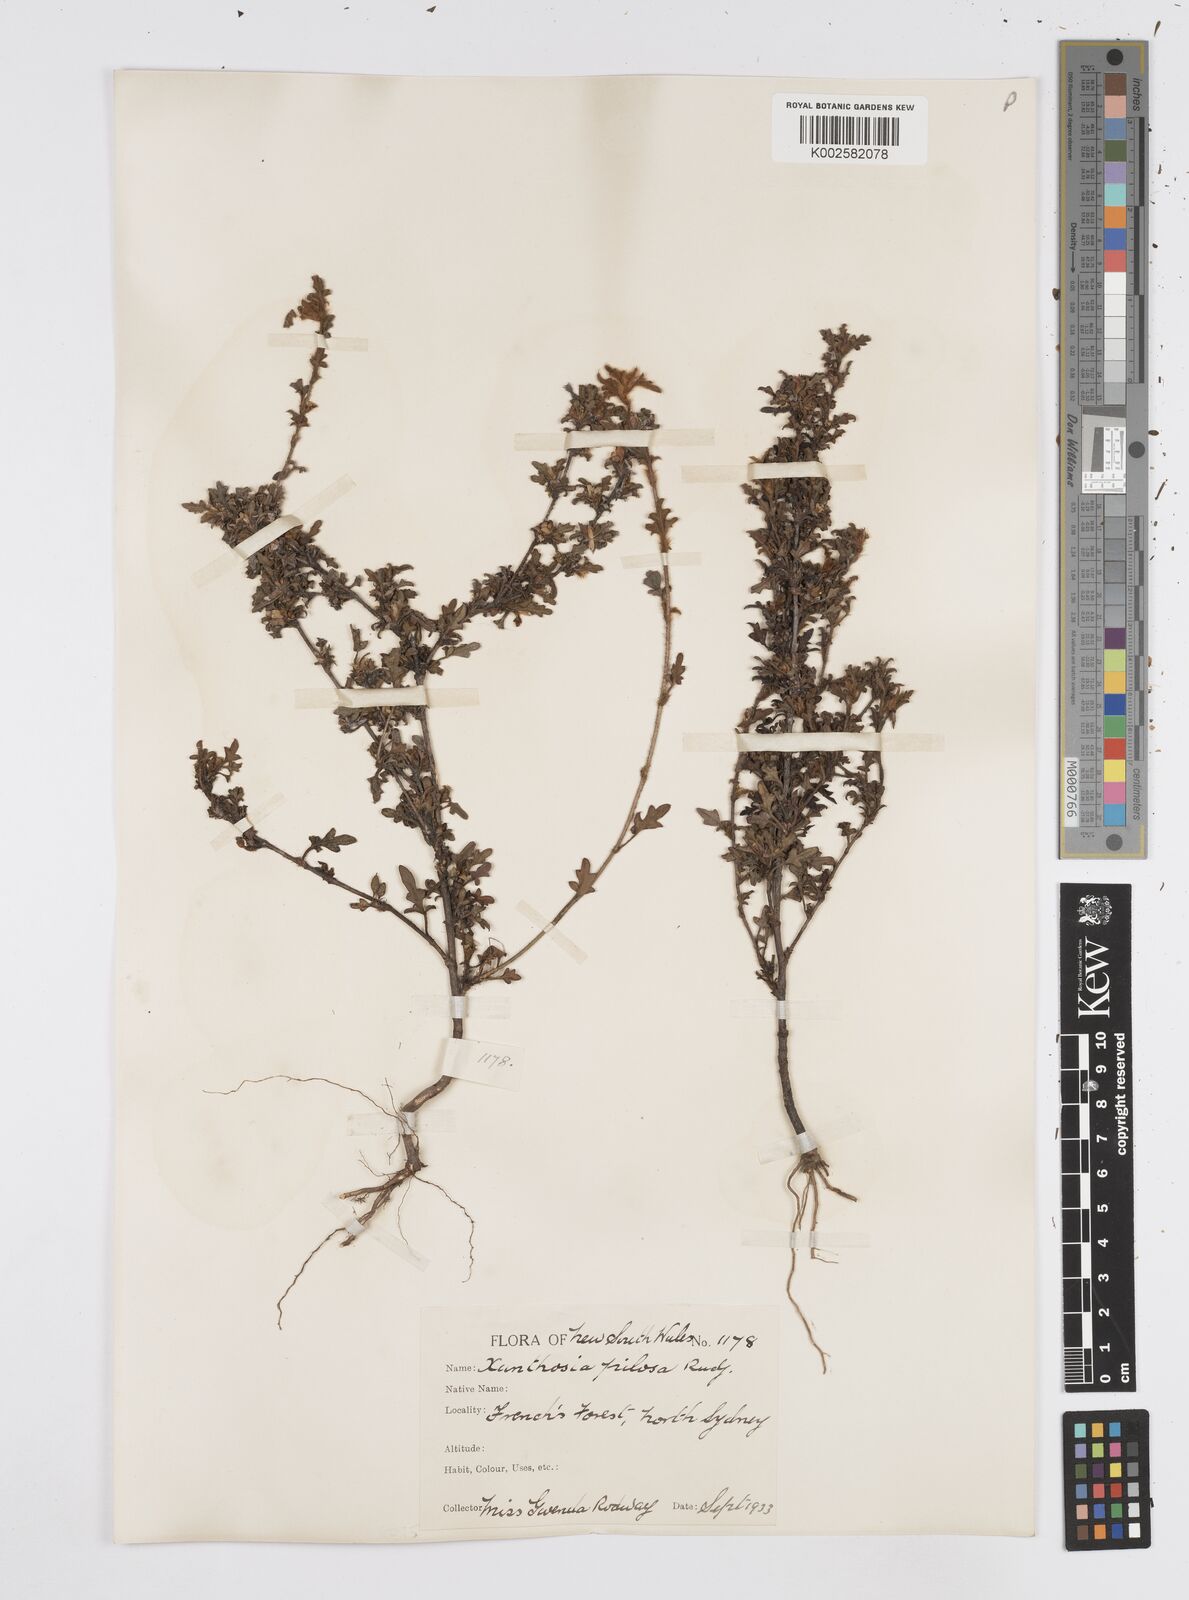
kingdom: Plantae
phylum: Tracheophyta
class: Magnoliopsida
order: Apiales
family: Apiaceae
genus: Xanthosia
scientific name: Xanthosia pilosa
